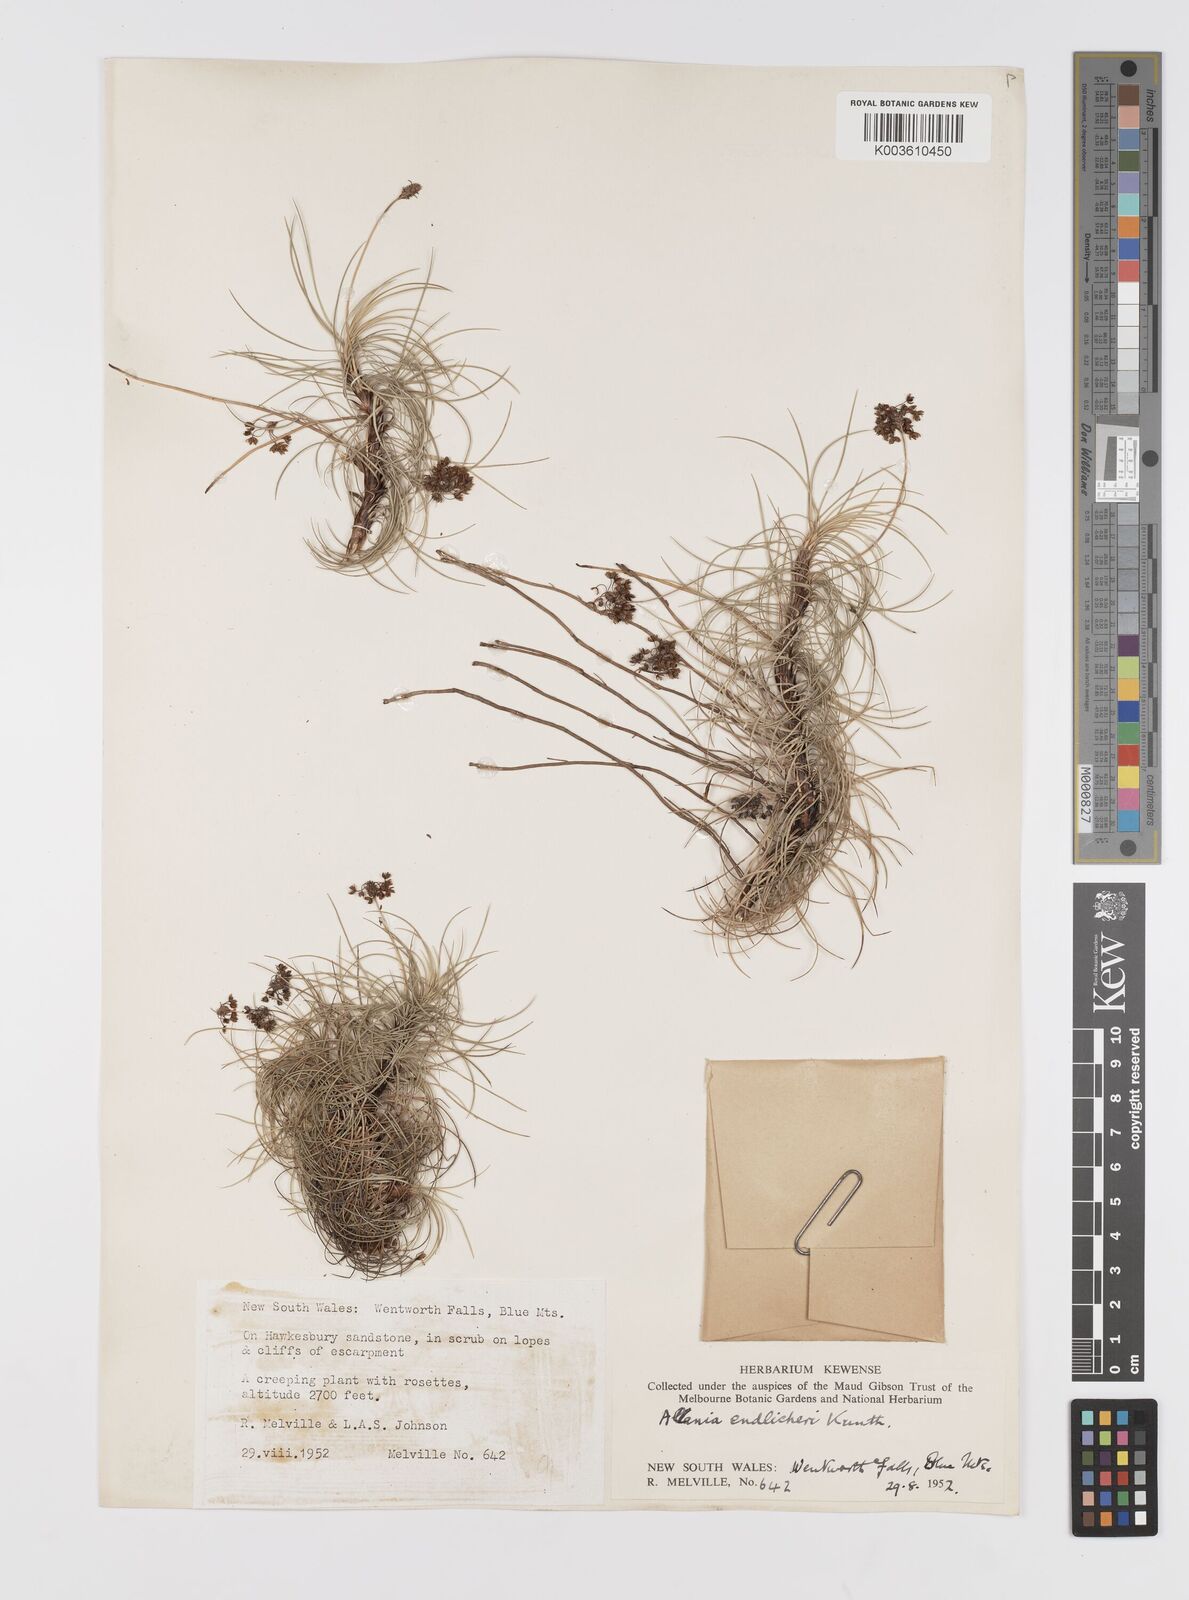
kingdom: Plantae
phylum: Tracheophyta
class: Liliopsida
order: Asparagales
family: Boryaceae
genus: Alania
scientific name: Alania cunninghamii
